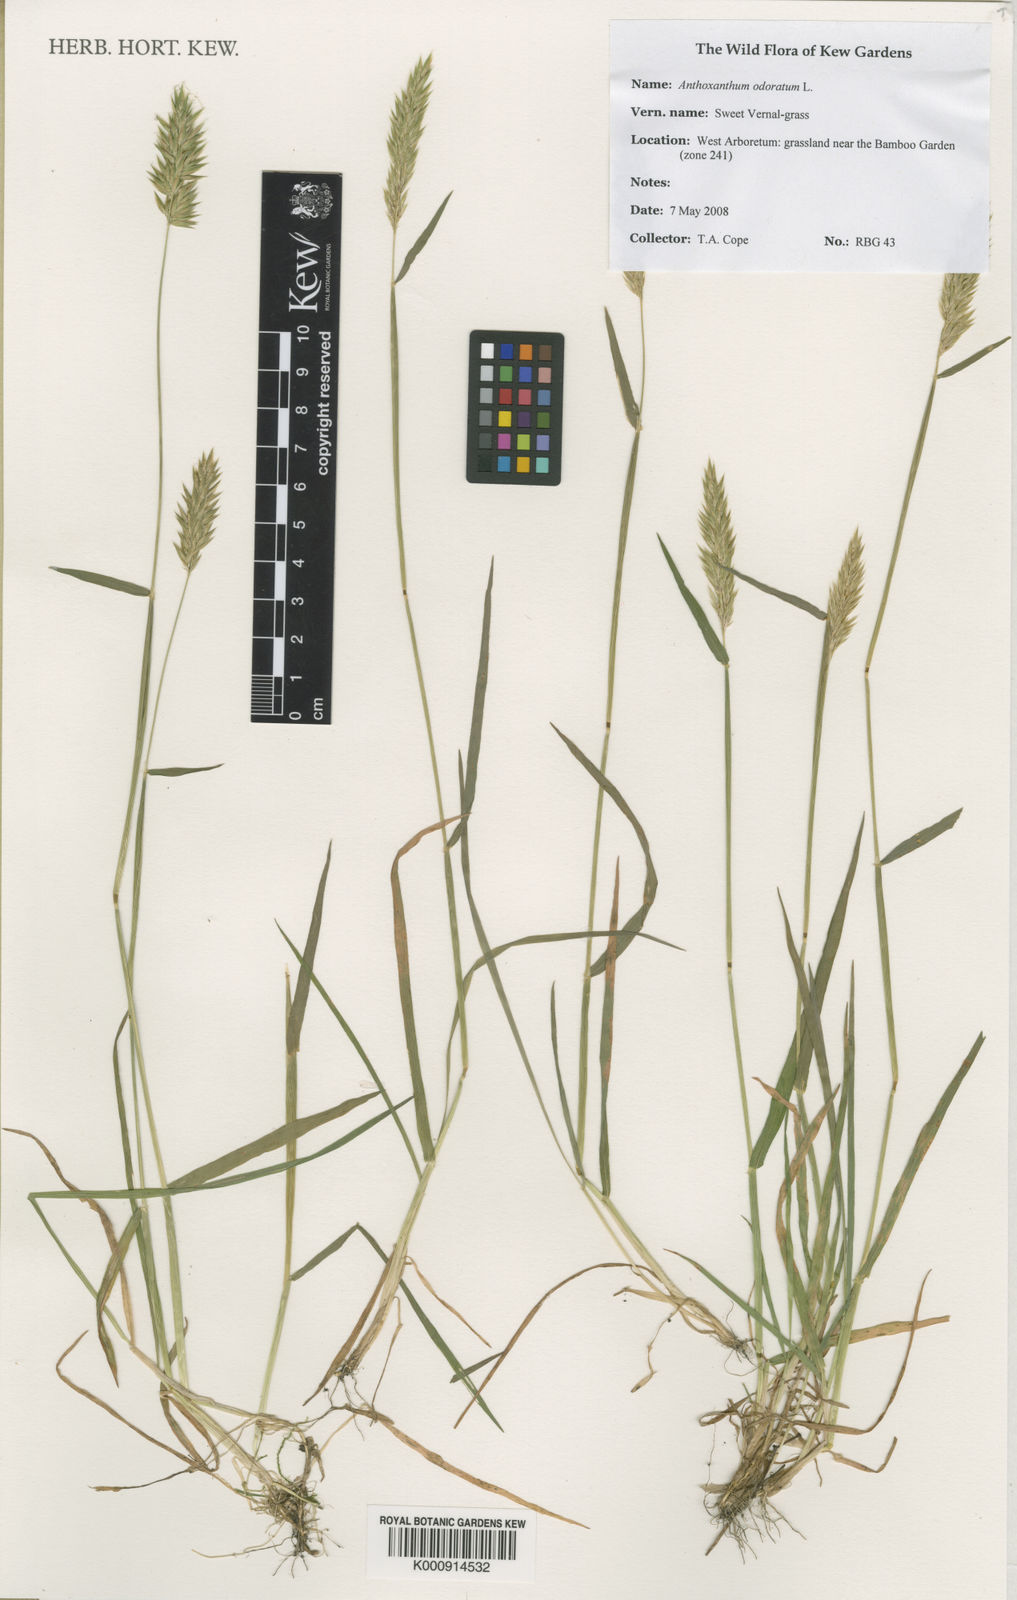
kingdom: Plantae
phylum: Tracheophyta
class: Liliopsida
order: Poales
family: Poaceae
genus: Anthoxanthum
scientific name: Anthoxanthum odoratum
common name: Sweet vernalgrass
